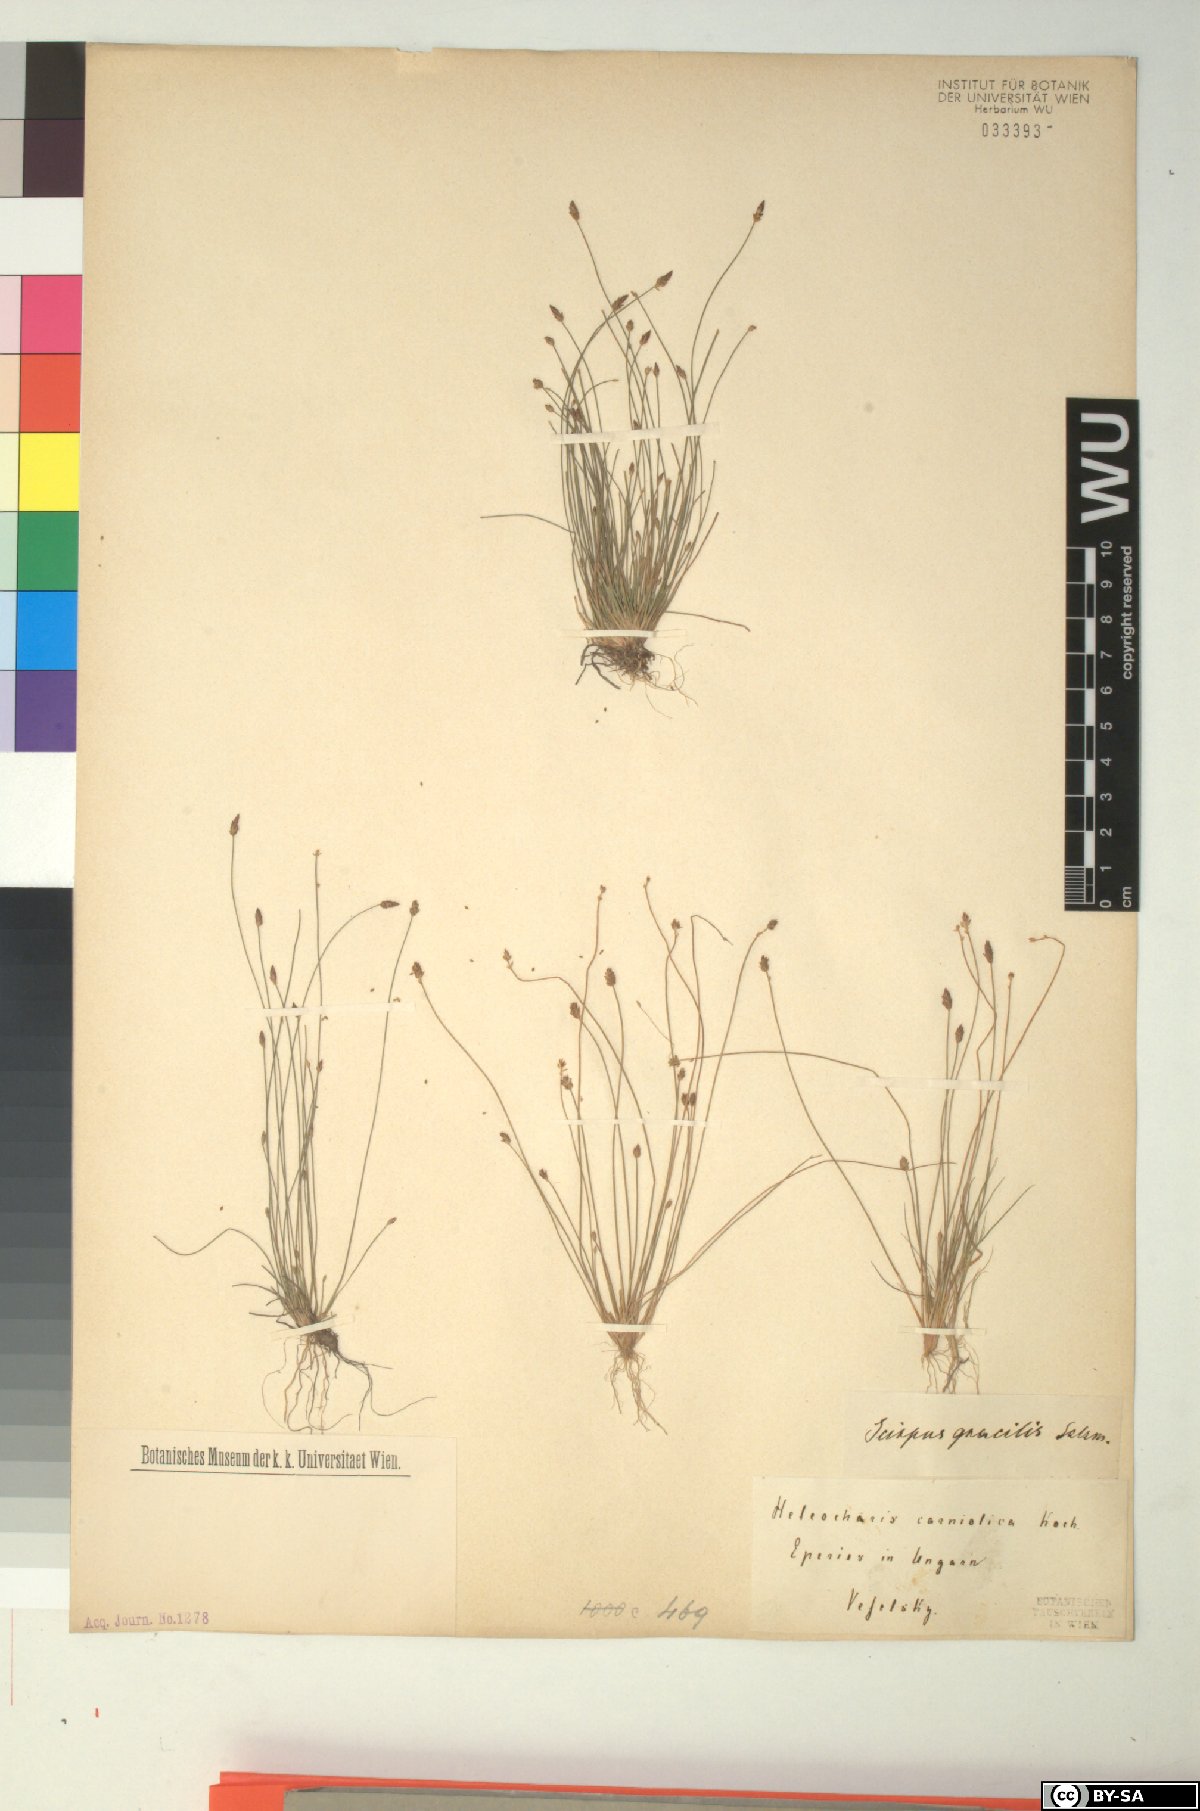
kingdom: Plantae
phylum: Tracheophyta
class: Liliopsida
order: Poales
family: Cyperaceae
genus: Eleocharis
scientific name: Eleocharis carniolica
